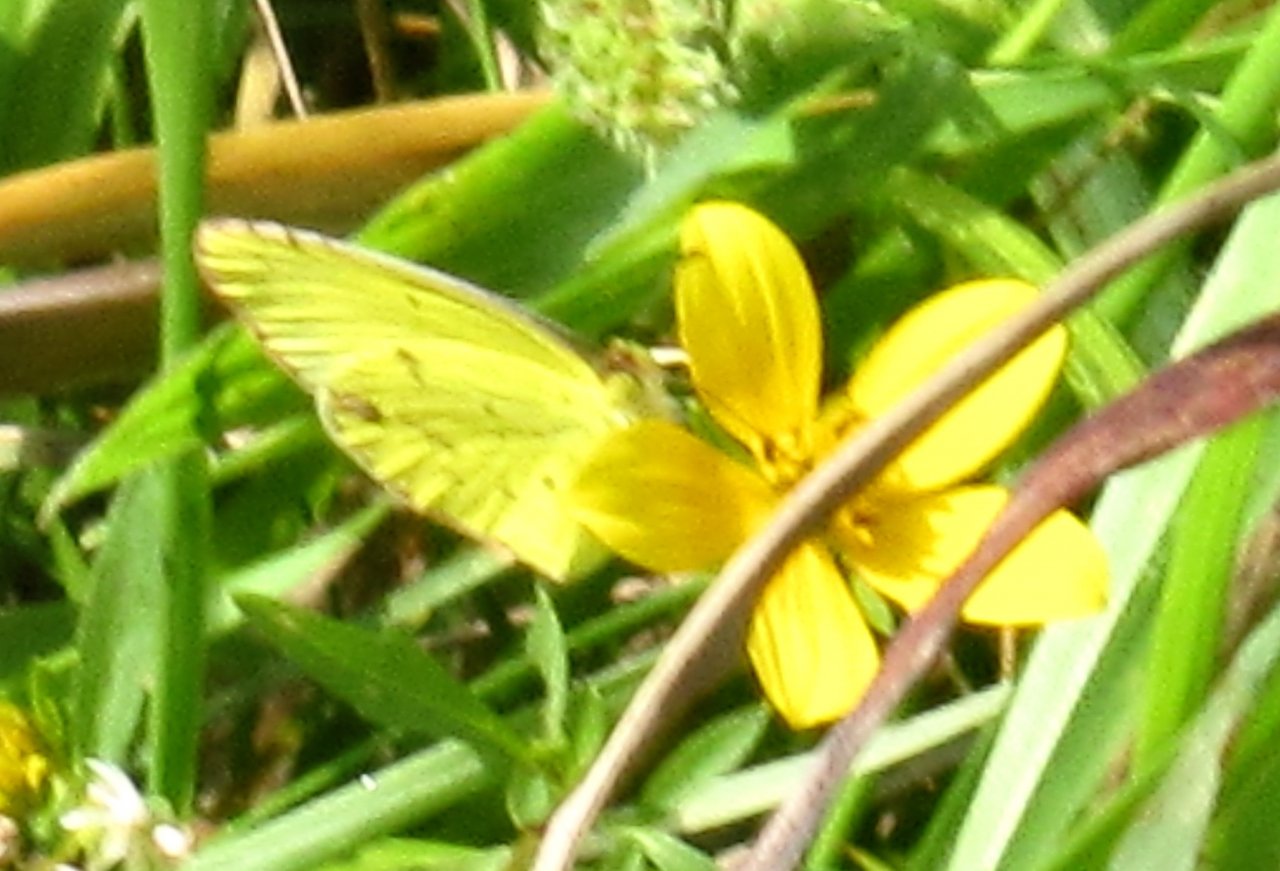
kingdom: Animalia
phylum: Arthropoda
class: Insecta
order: Lepidoptera
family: Pieridae
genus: Pyrisitia
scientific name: Pyrisitia lisa
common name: Little Yellow
